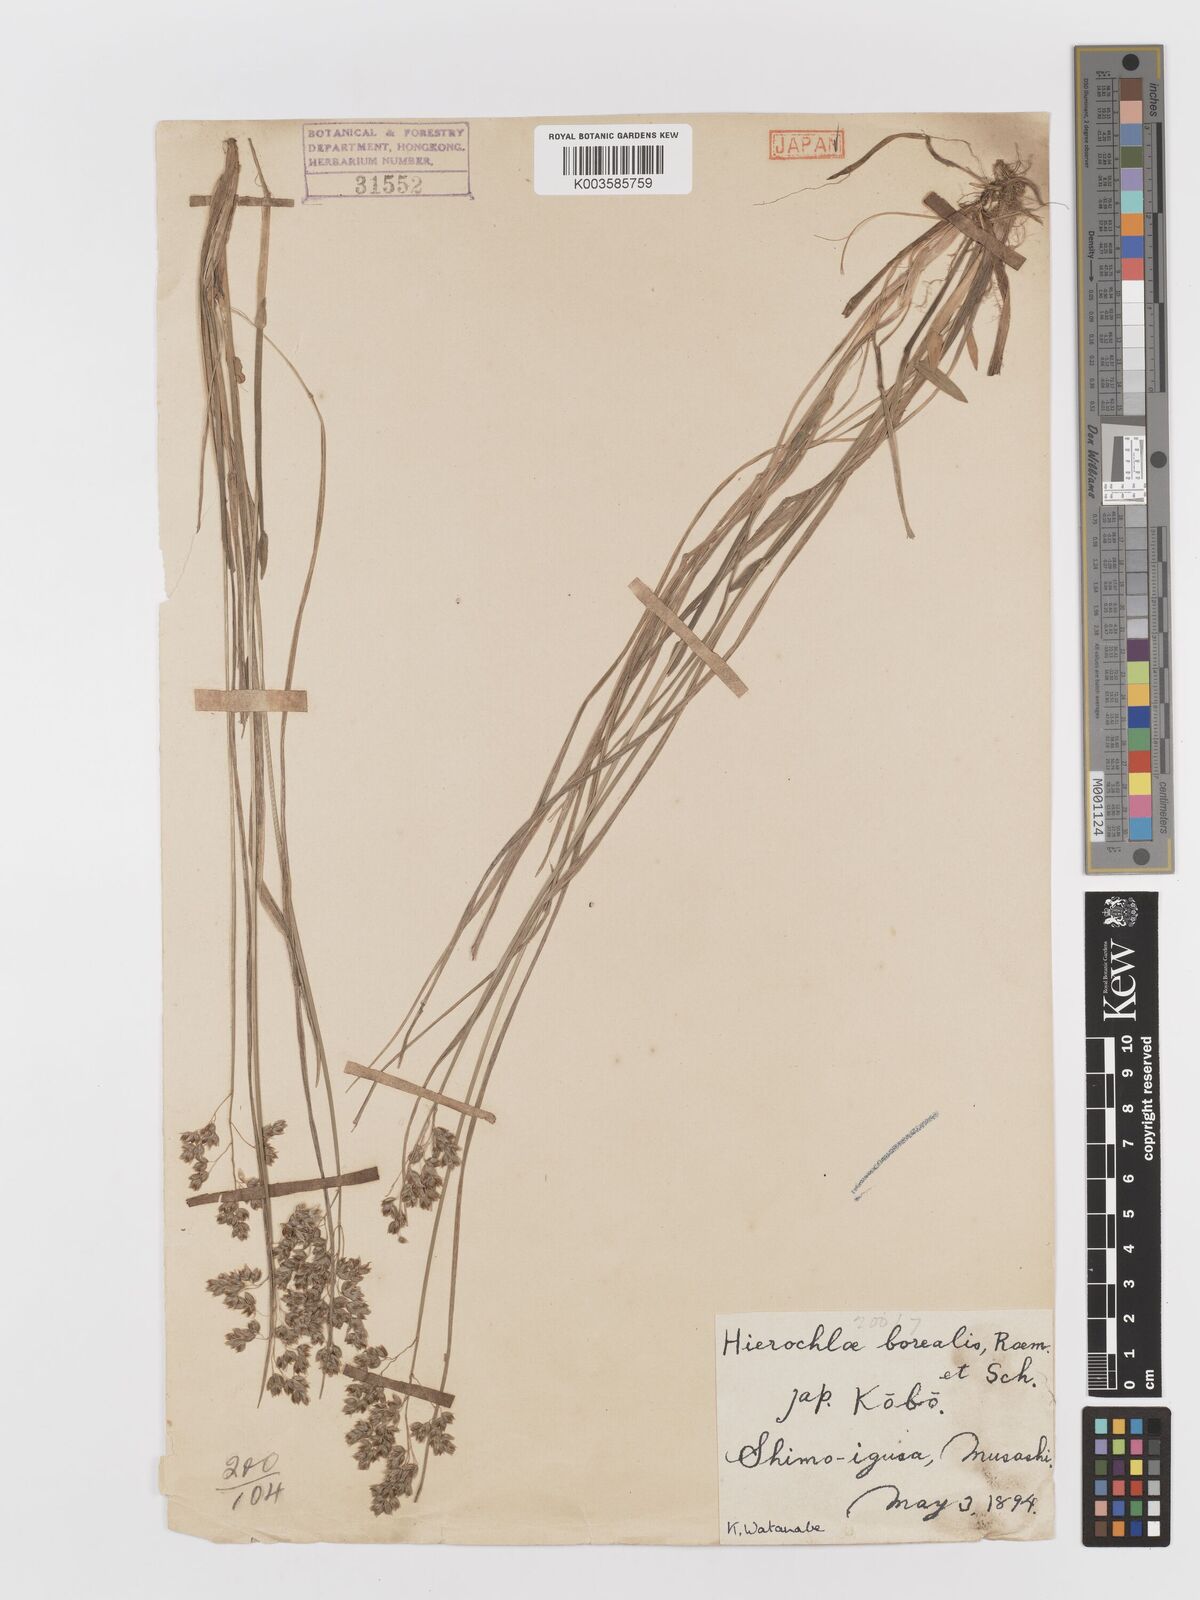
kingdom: Plantae
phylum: Tracheophyta
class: Liliopsida
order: Poales
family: Poaceae
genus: Anthoxanthum
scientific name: Anthoxanthum nitens
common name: Holy grass
